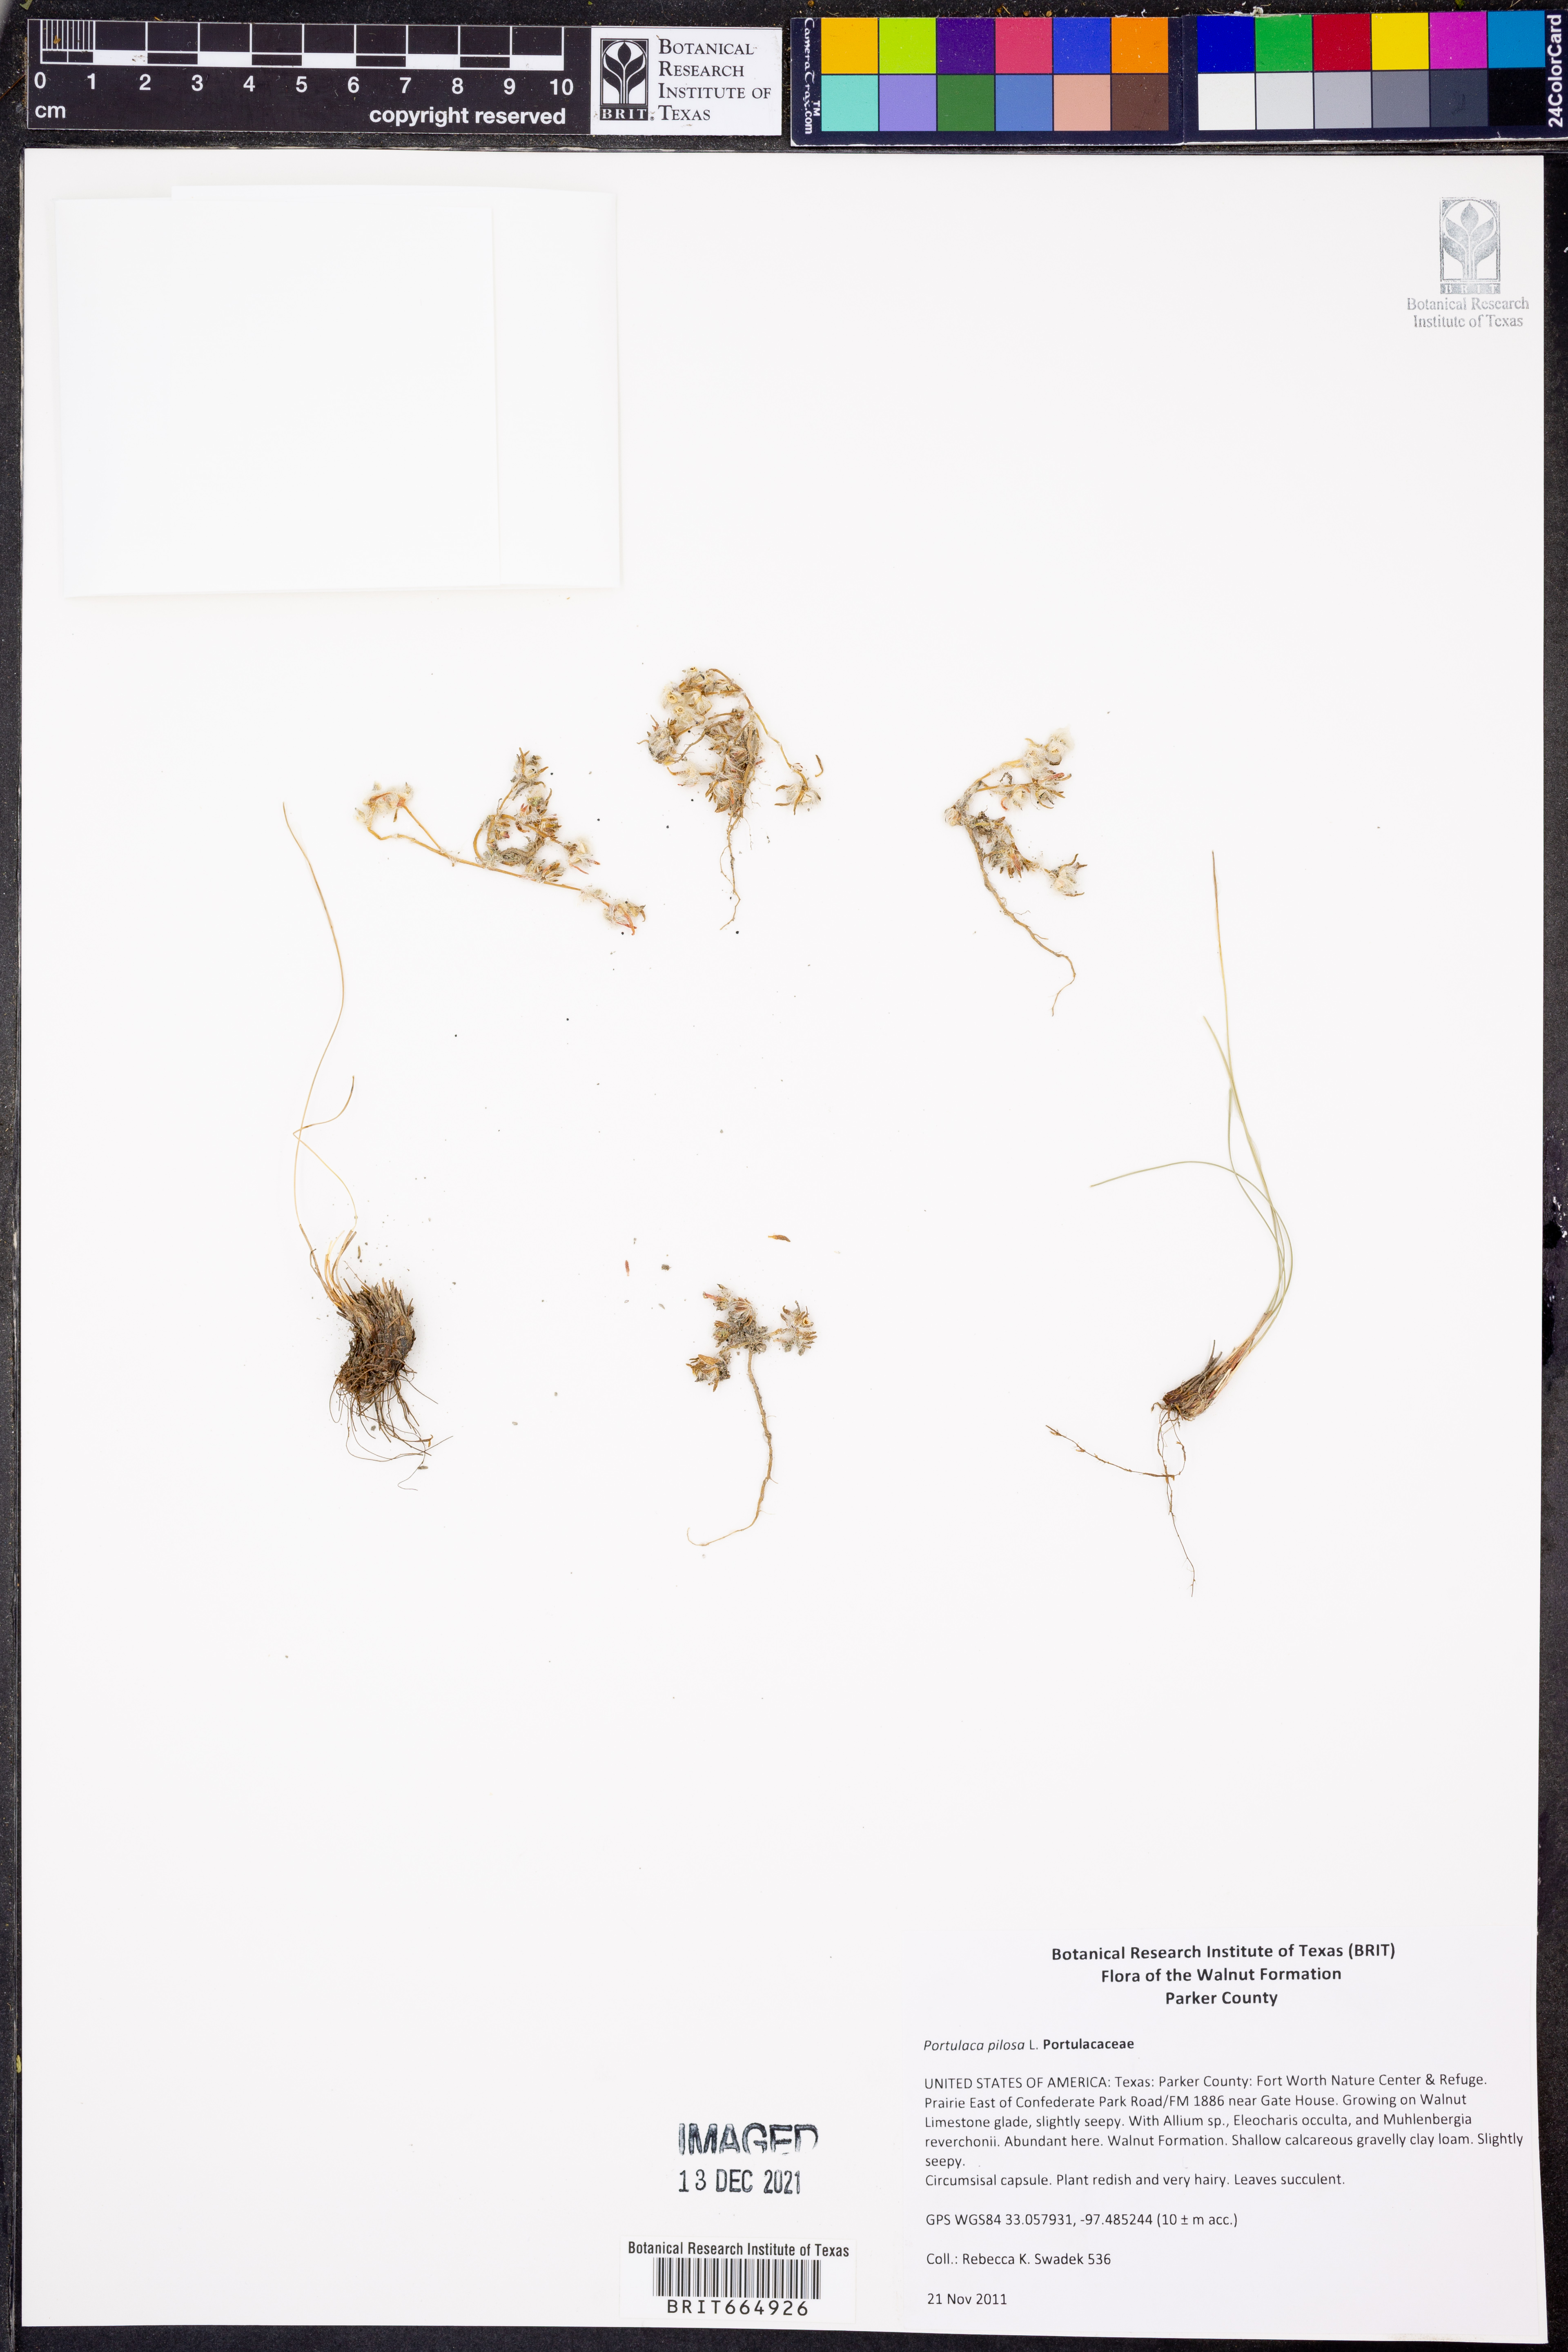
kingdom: Plantae
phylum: Tracheophyta
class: Magnoliopsida
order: Caryophyllales
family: Portulacaceae
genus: Portulaca
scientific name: Portulaca pilosa
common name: Kiss me quick
